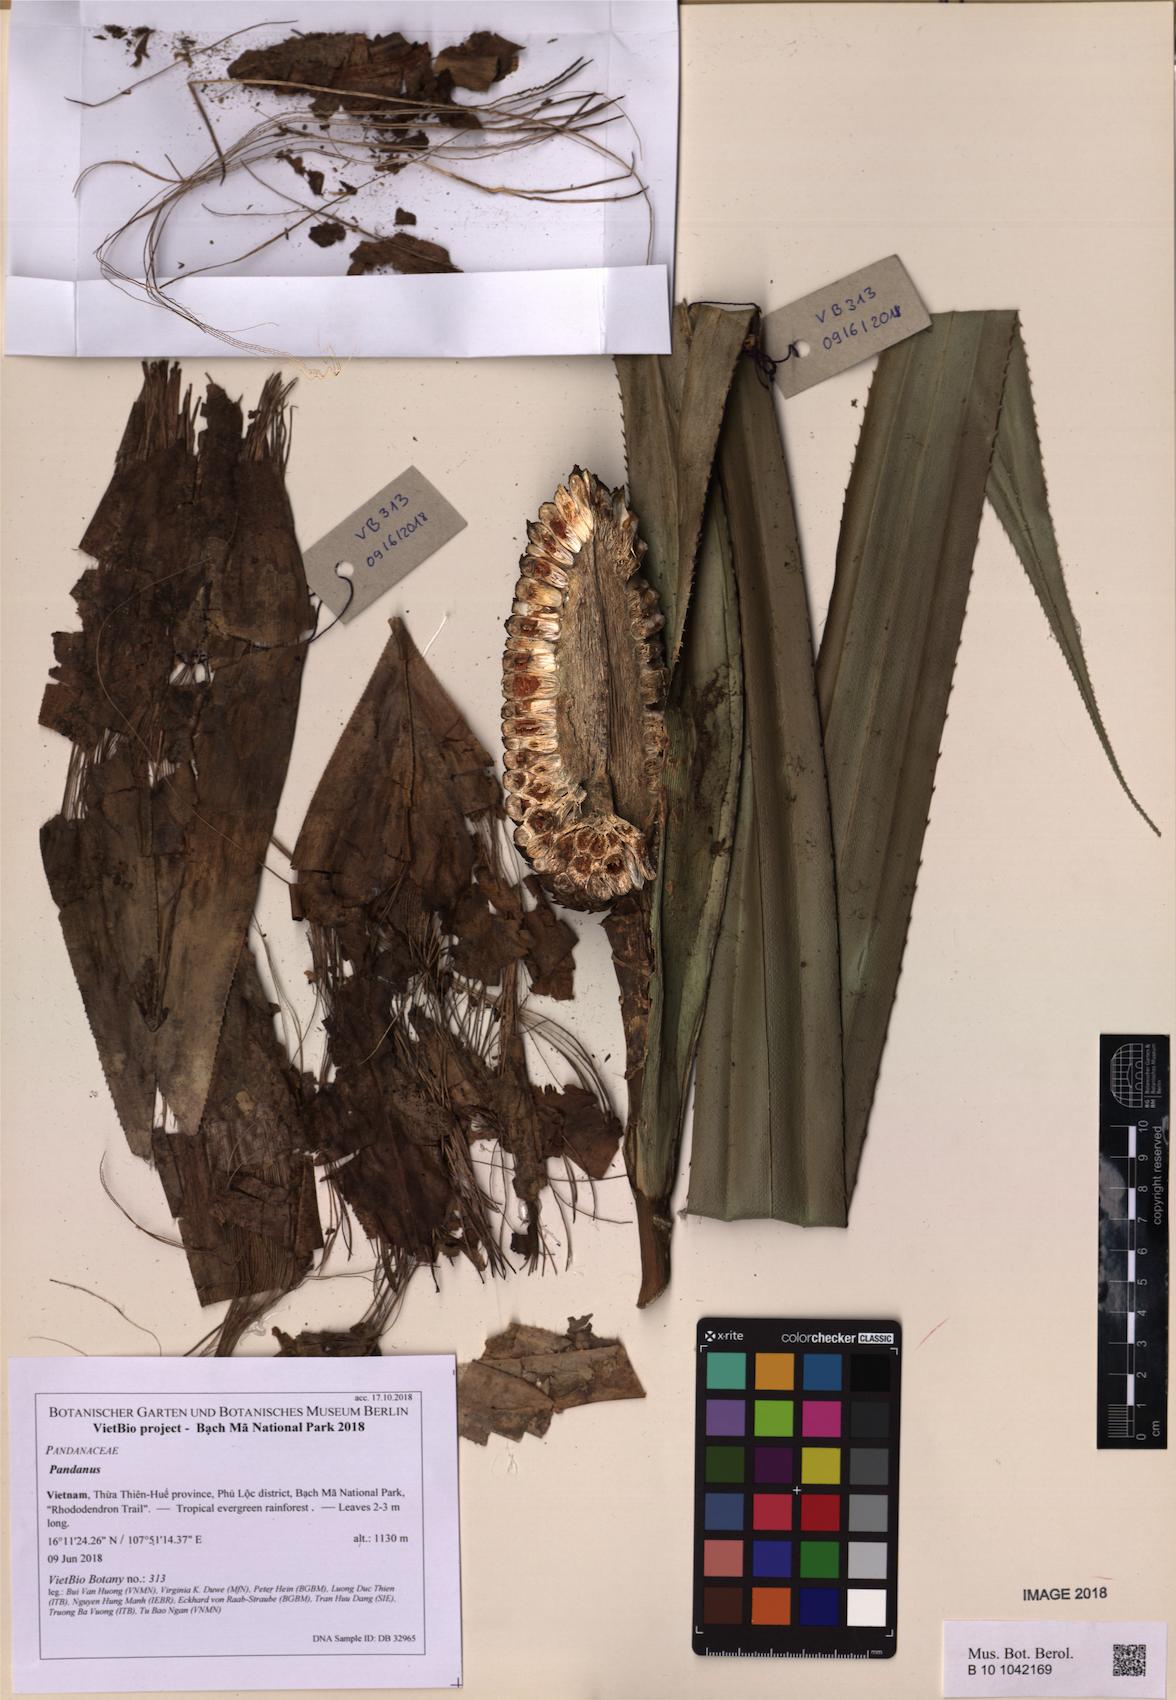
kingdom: Plantae
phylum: Tracheophyta
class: Liliopsida
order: Pandanales
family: Pandanaceae
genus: Pandanus
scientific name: Pandanus
